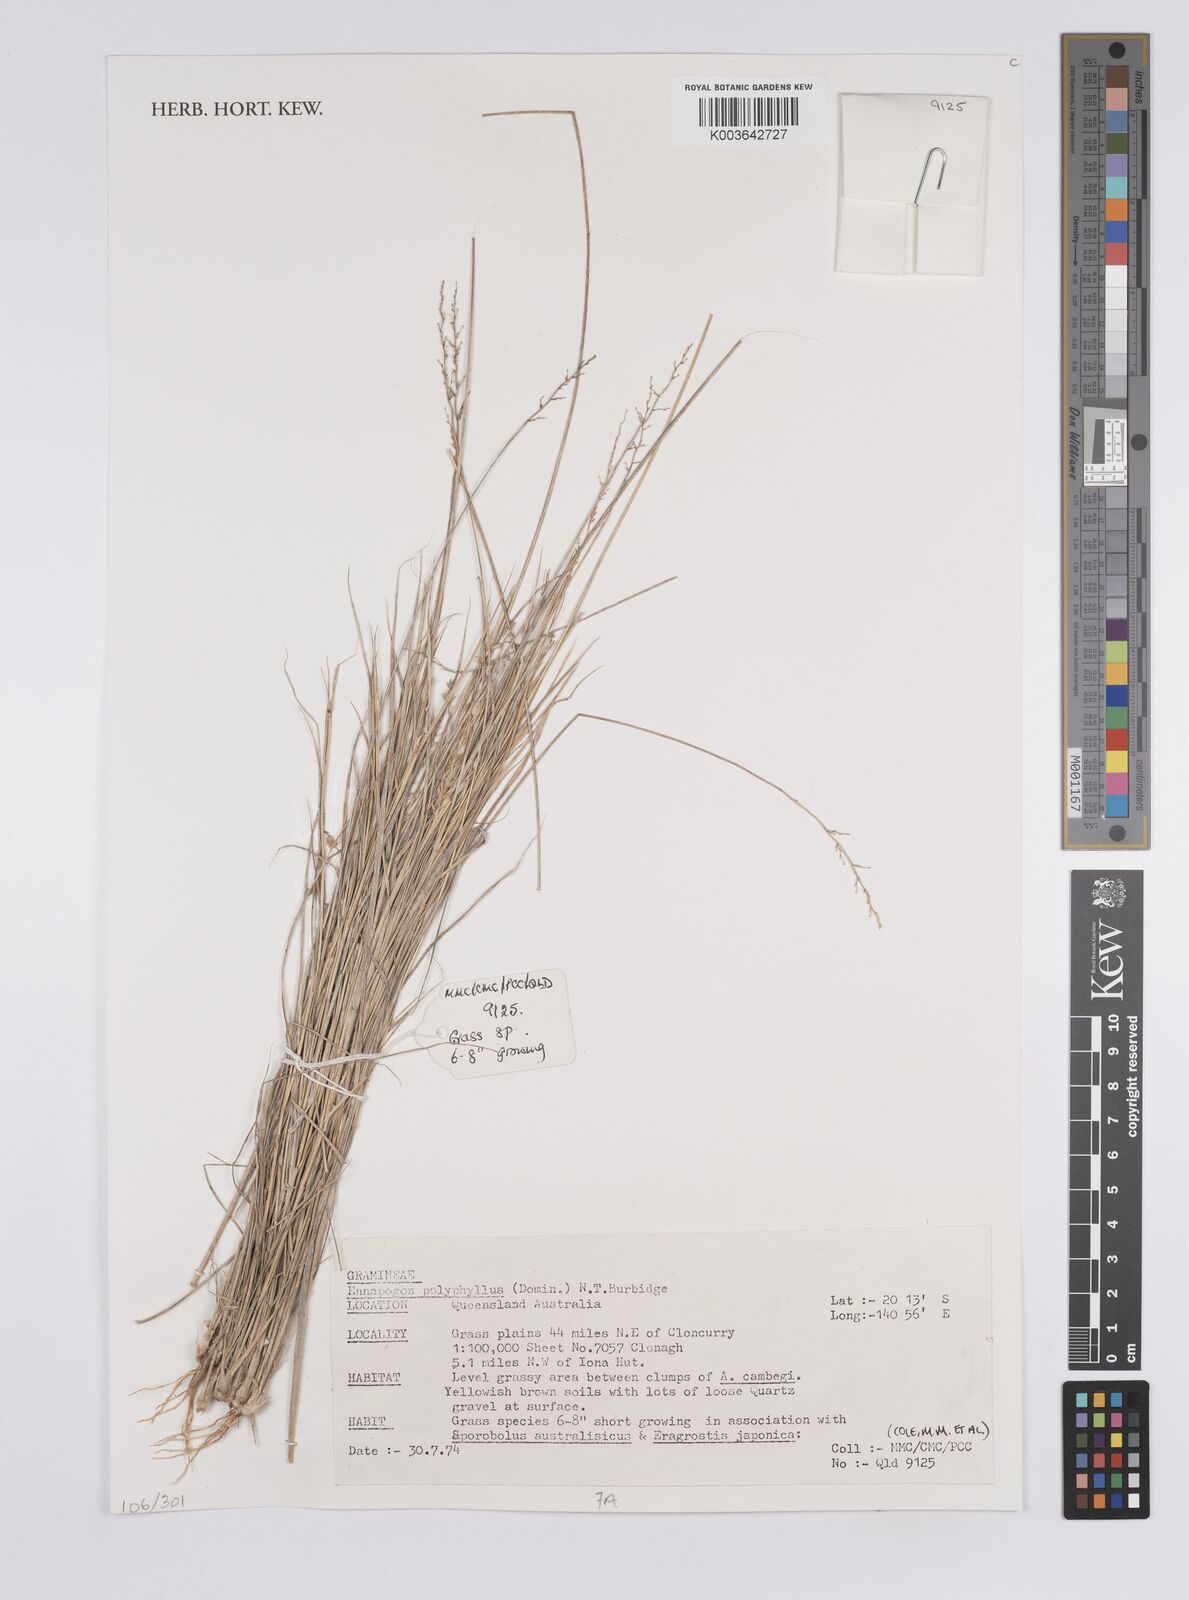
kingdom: Plantae
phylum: Tracheophyta
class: Liliopsida
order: Poales
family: Poaceae
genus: Enneapogon
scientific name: Enneapogon polyphyllus
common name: Leafy nineawn
